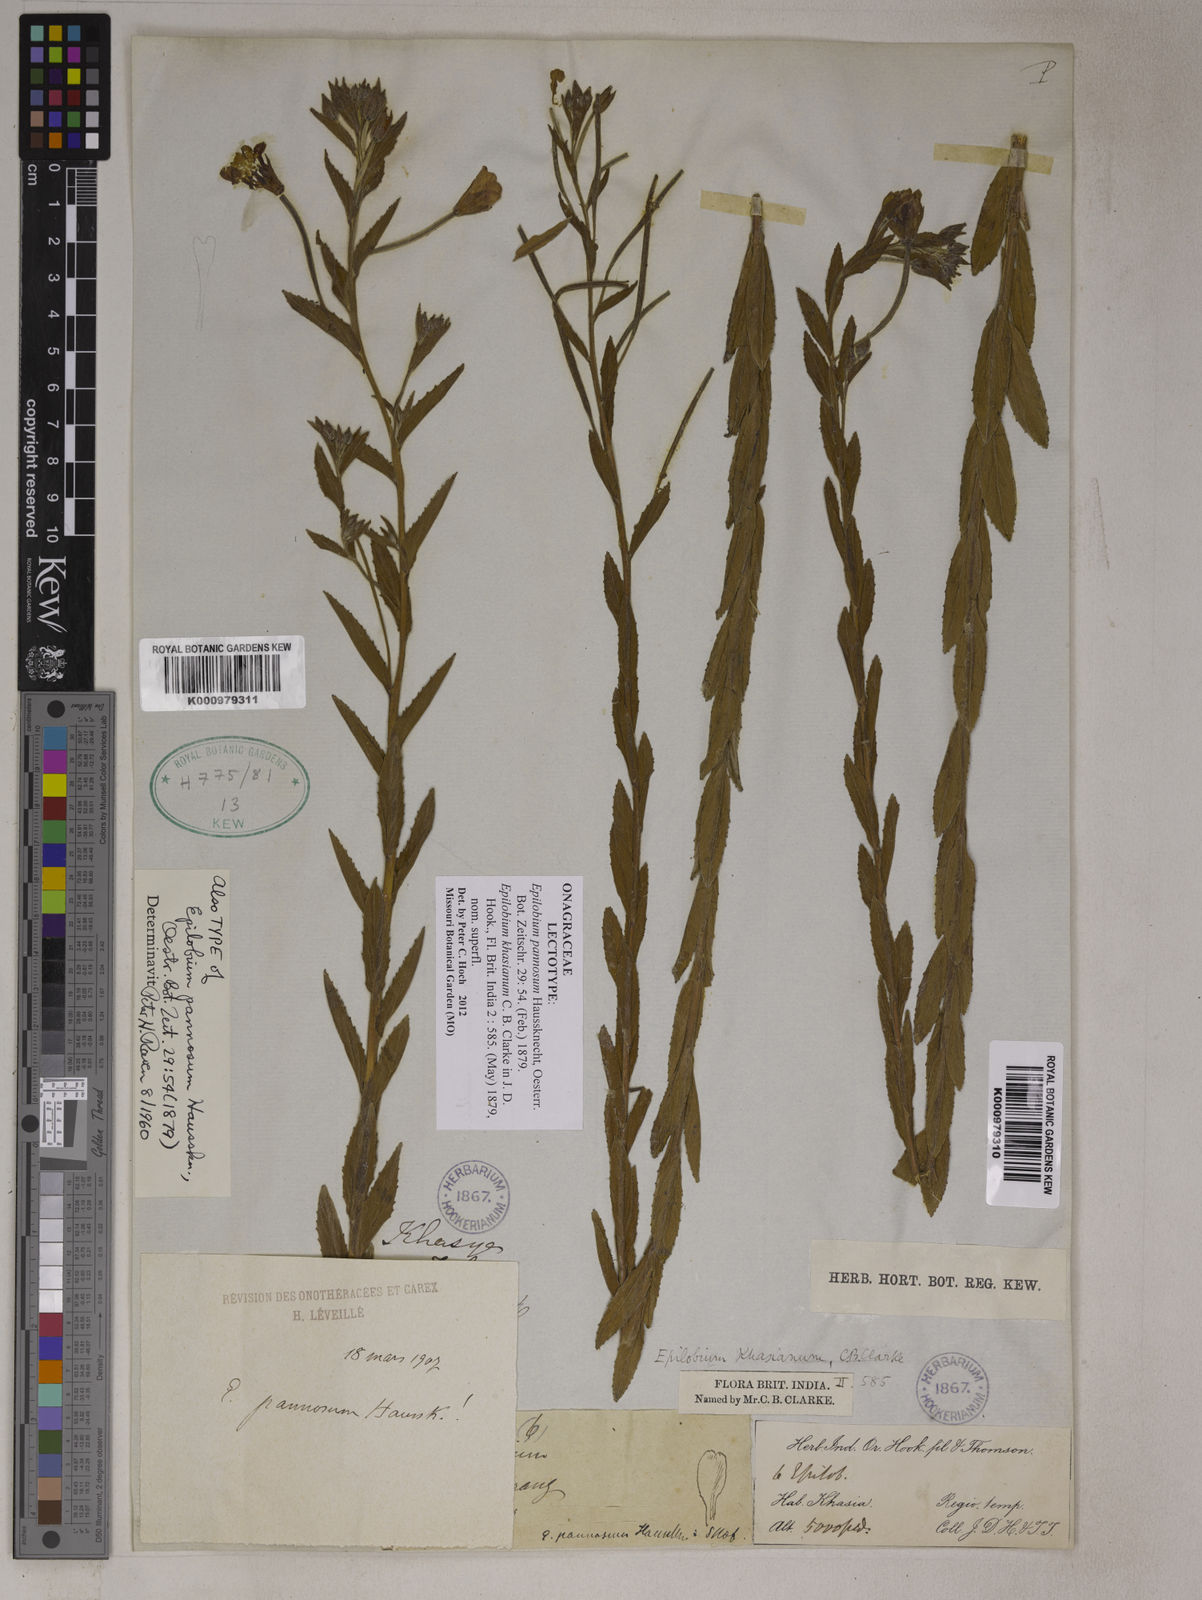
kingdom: Plantae
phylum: Tracheophyta
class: Magnoliopsida
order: Myrtales
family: Onagraceae
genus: Epilobium
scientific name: Epilobium pannosum
